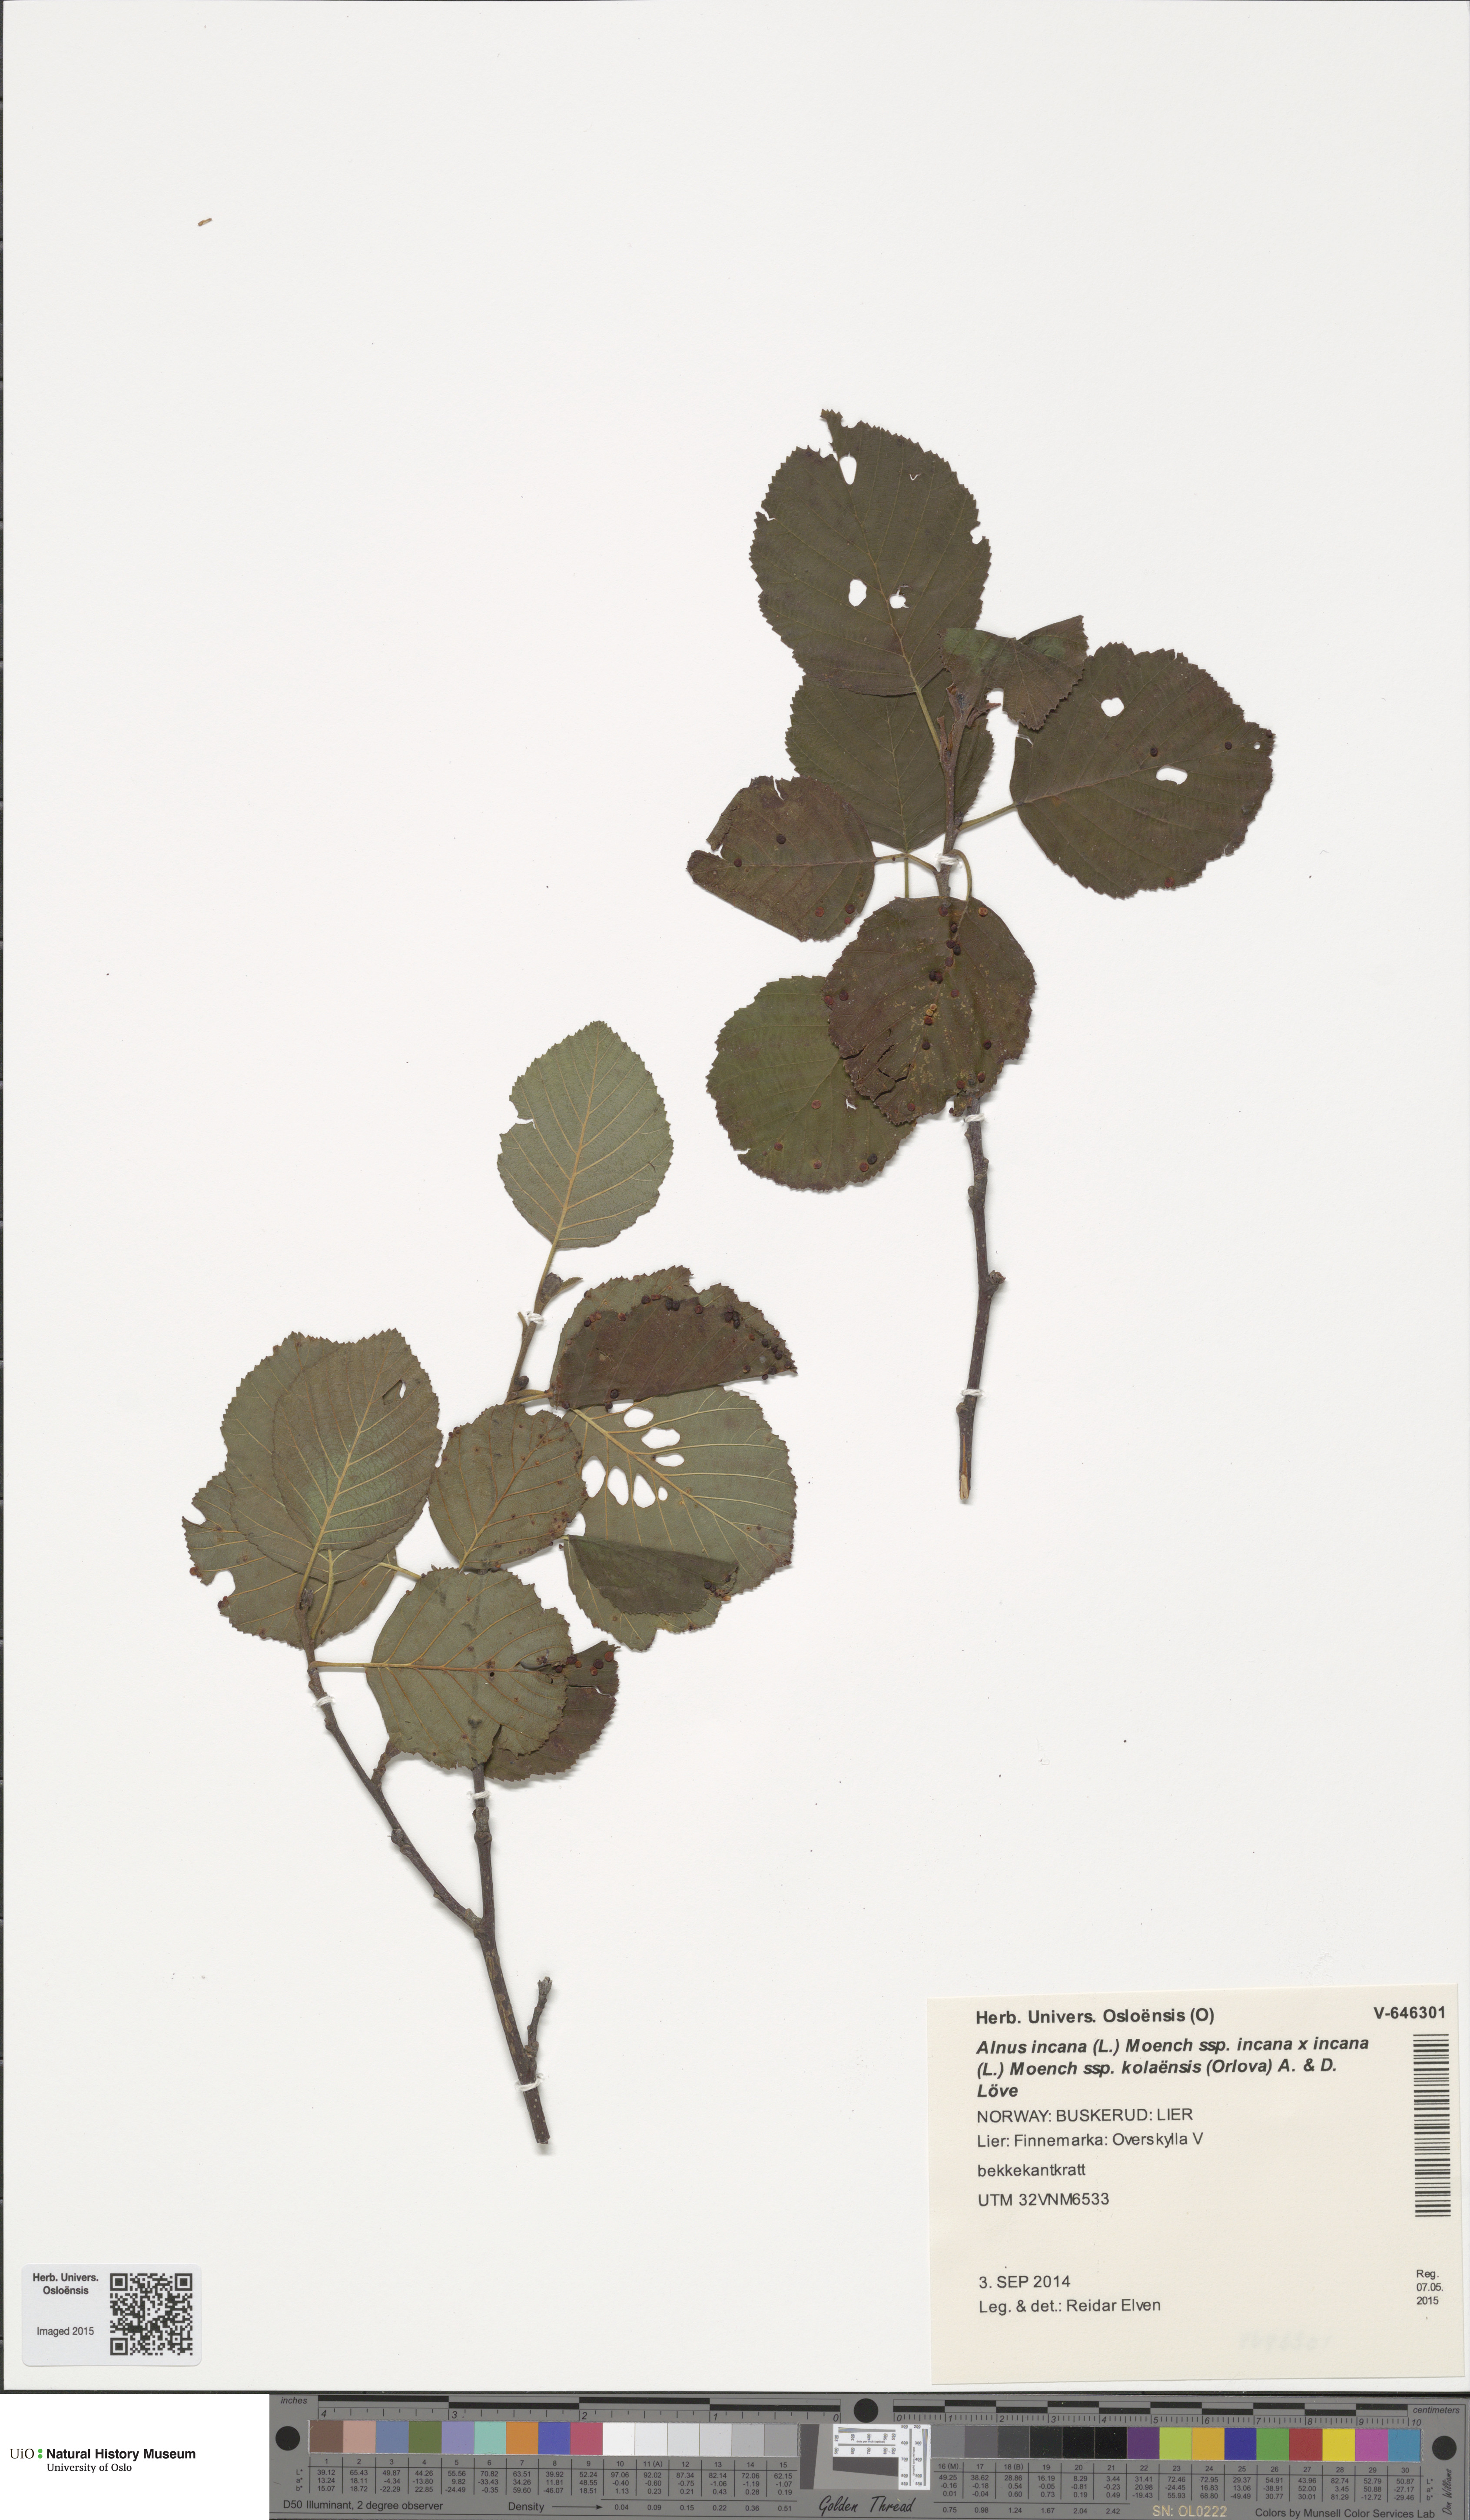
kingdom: Plantae
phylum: Tracheophyta
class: Magnoliopsida
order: Fagales
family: Betulaceae
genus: Alnus
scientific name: Alnus incana
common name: Grey alder
